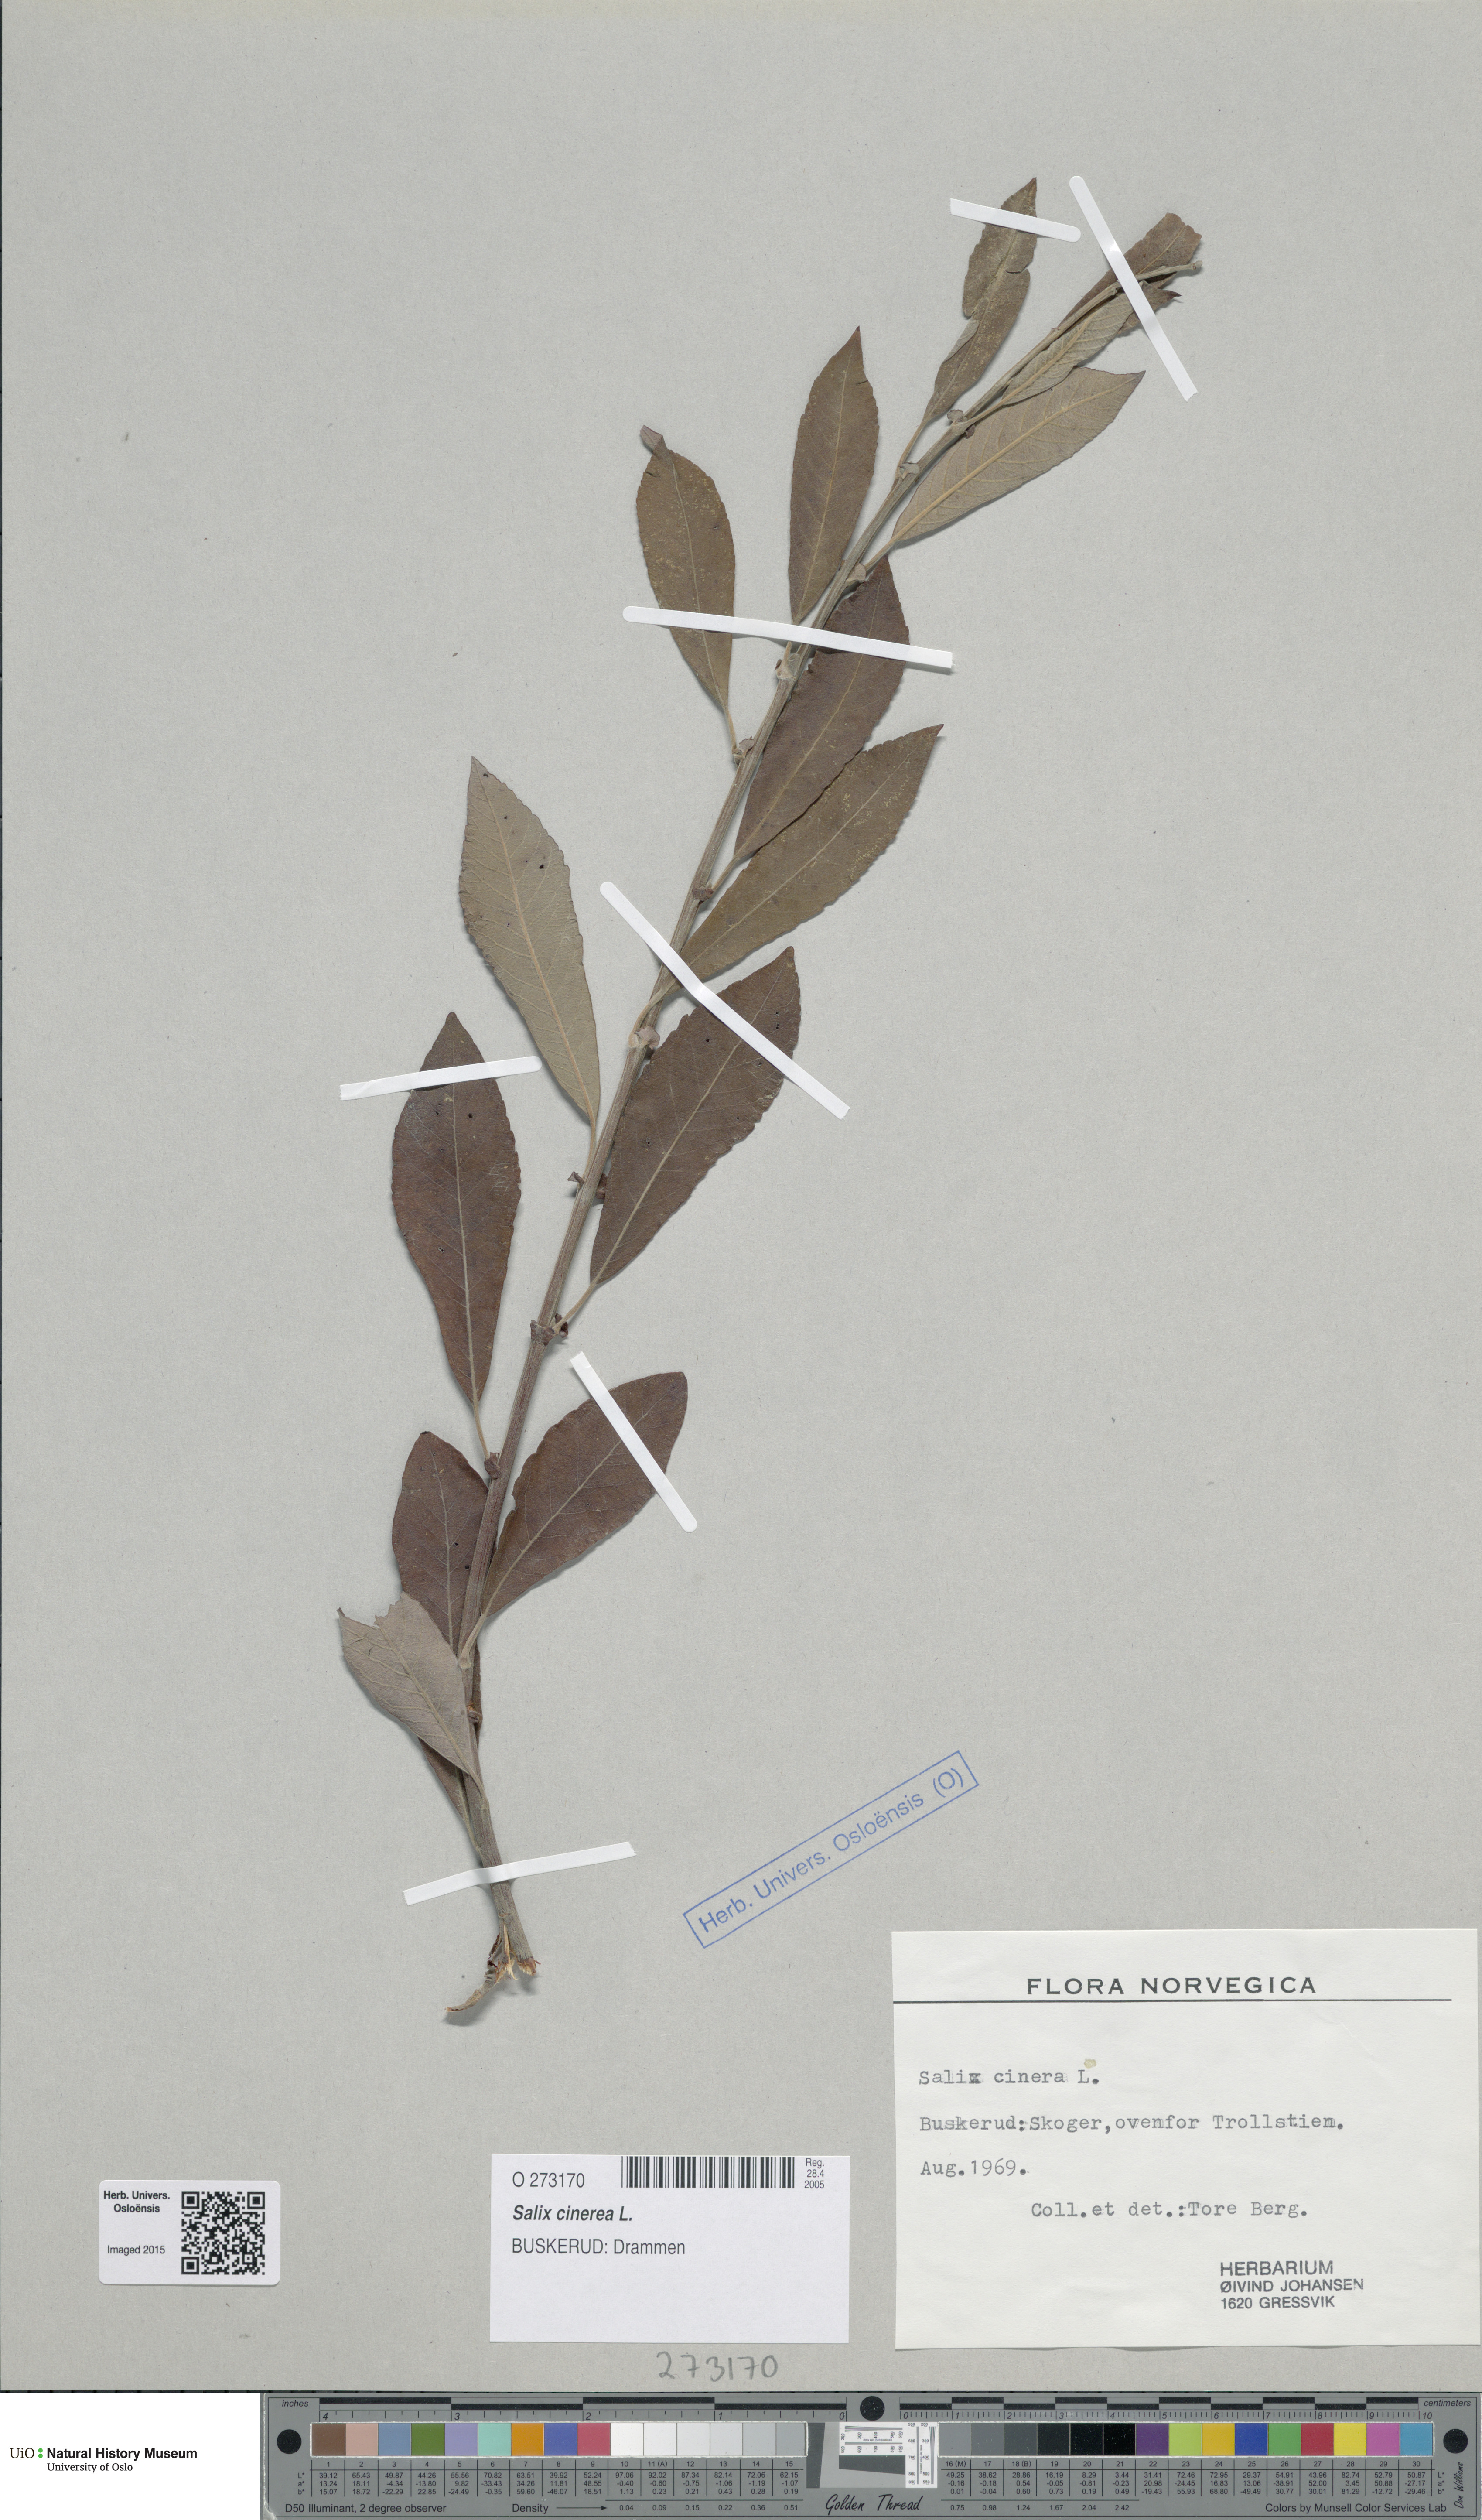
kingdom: Plantae
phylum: Tracheophyta
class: Magnoliopsida
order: Malpighiales
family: Salicaceae
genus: Salix
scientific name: Salix cinerea
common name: Common sallow
